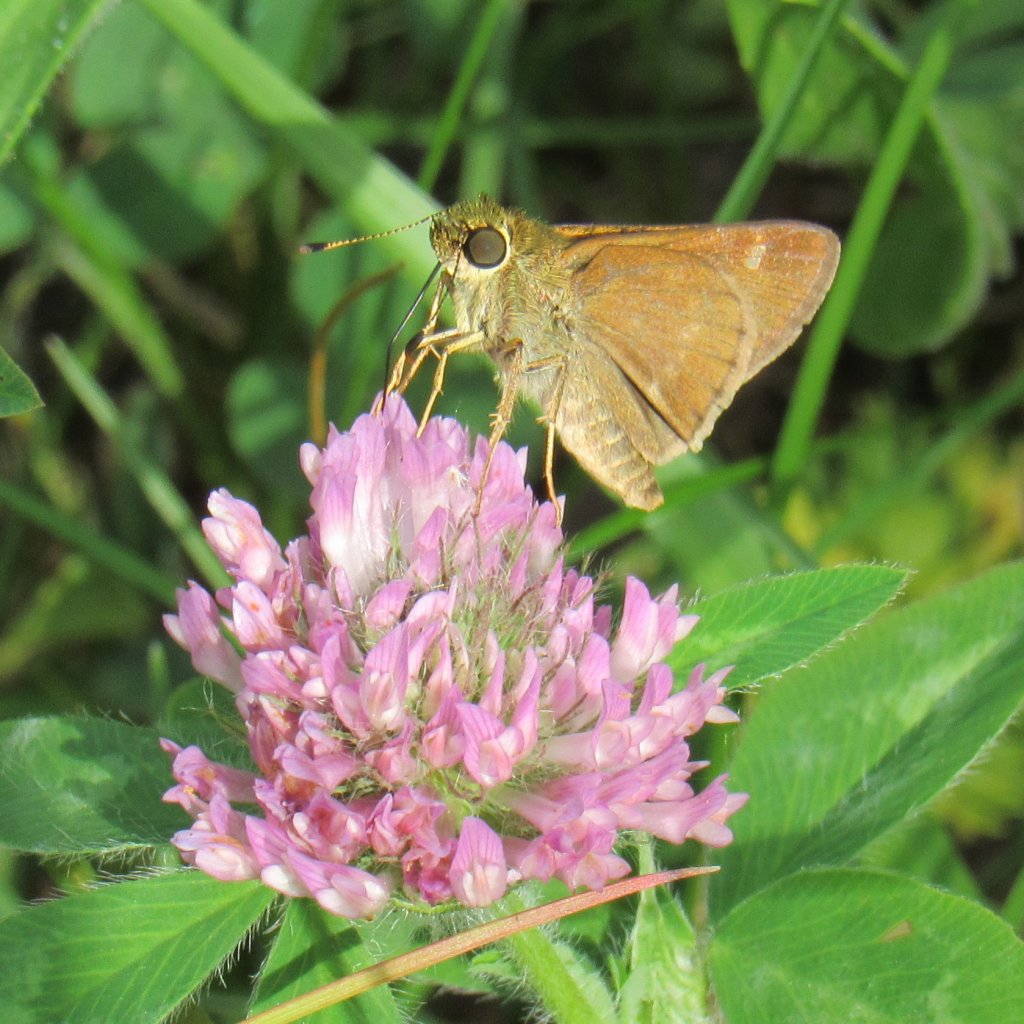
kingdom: Animalia
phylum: Arthropoda
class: Insecta
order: Lepidoptera
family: Hesperiidae
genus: Vernia
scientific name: Vernia verna
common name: Little Glassywing
